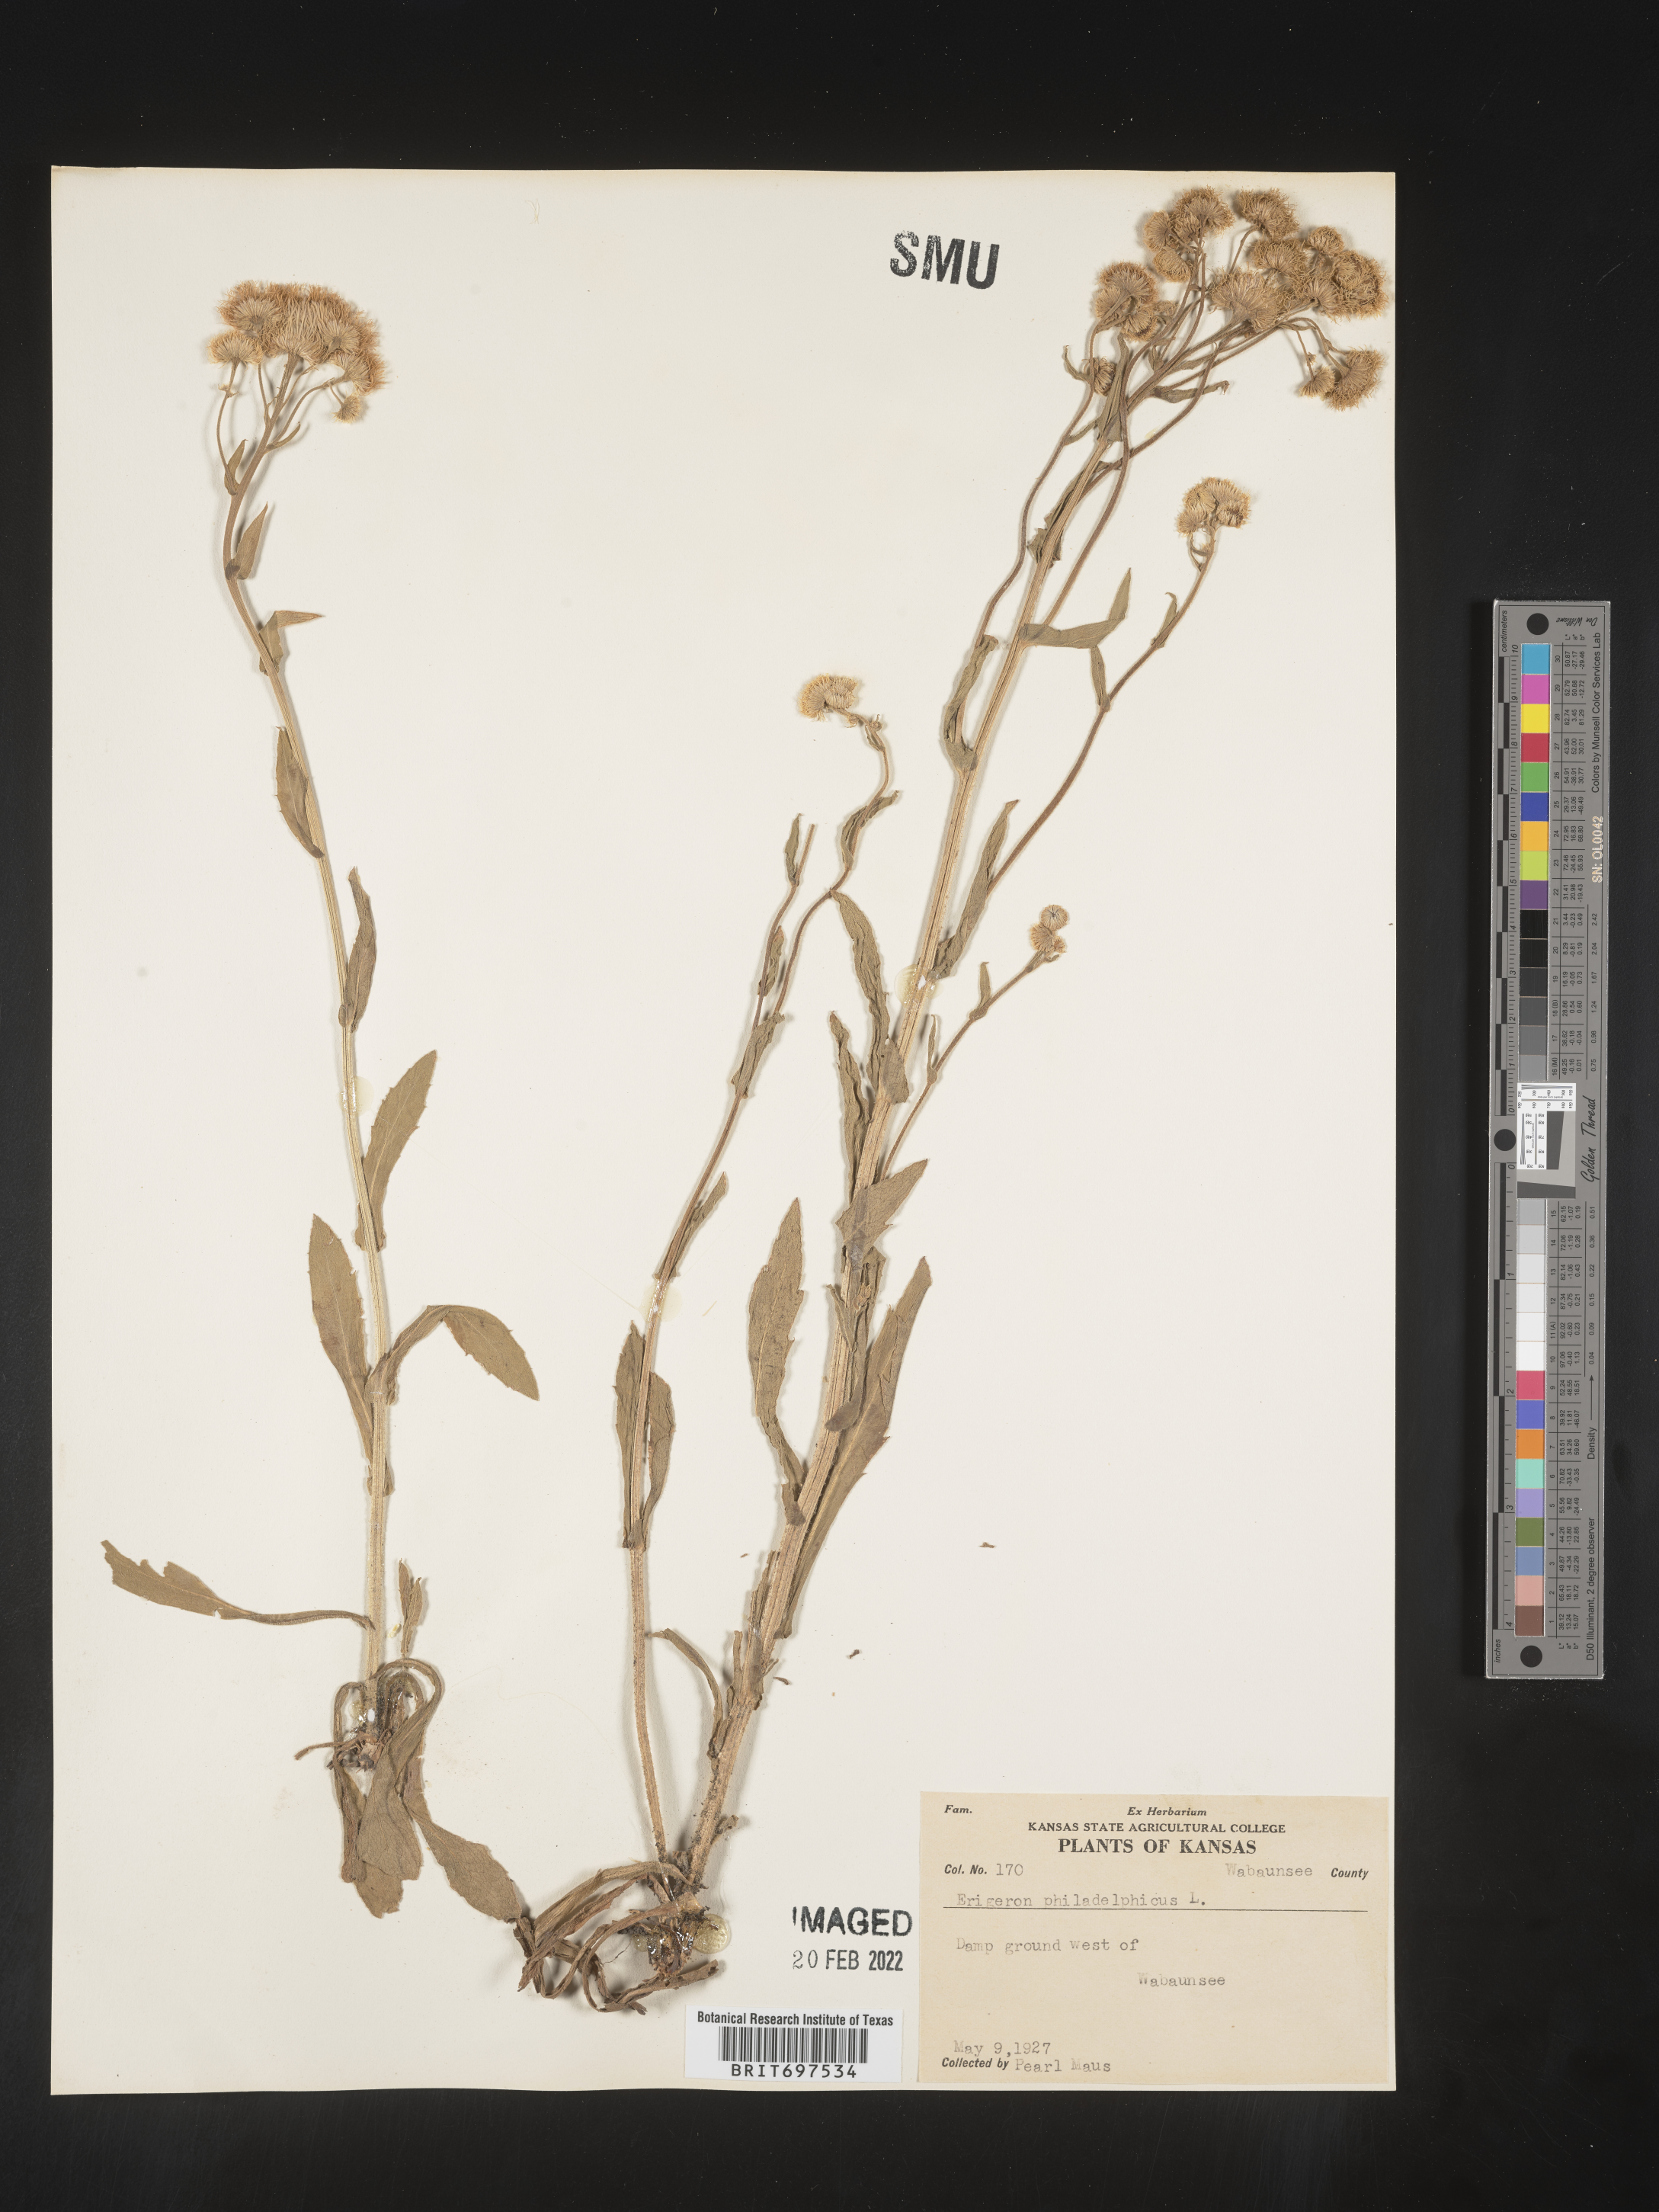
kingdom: Plantae
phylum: Tracheophyta
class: Magnoliopsida
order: Asterales
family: Asteraceae
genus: Erigeron
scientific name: Erigeron philadelphicus
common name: Robin's-plantain
